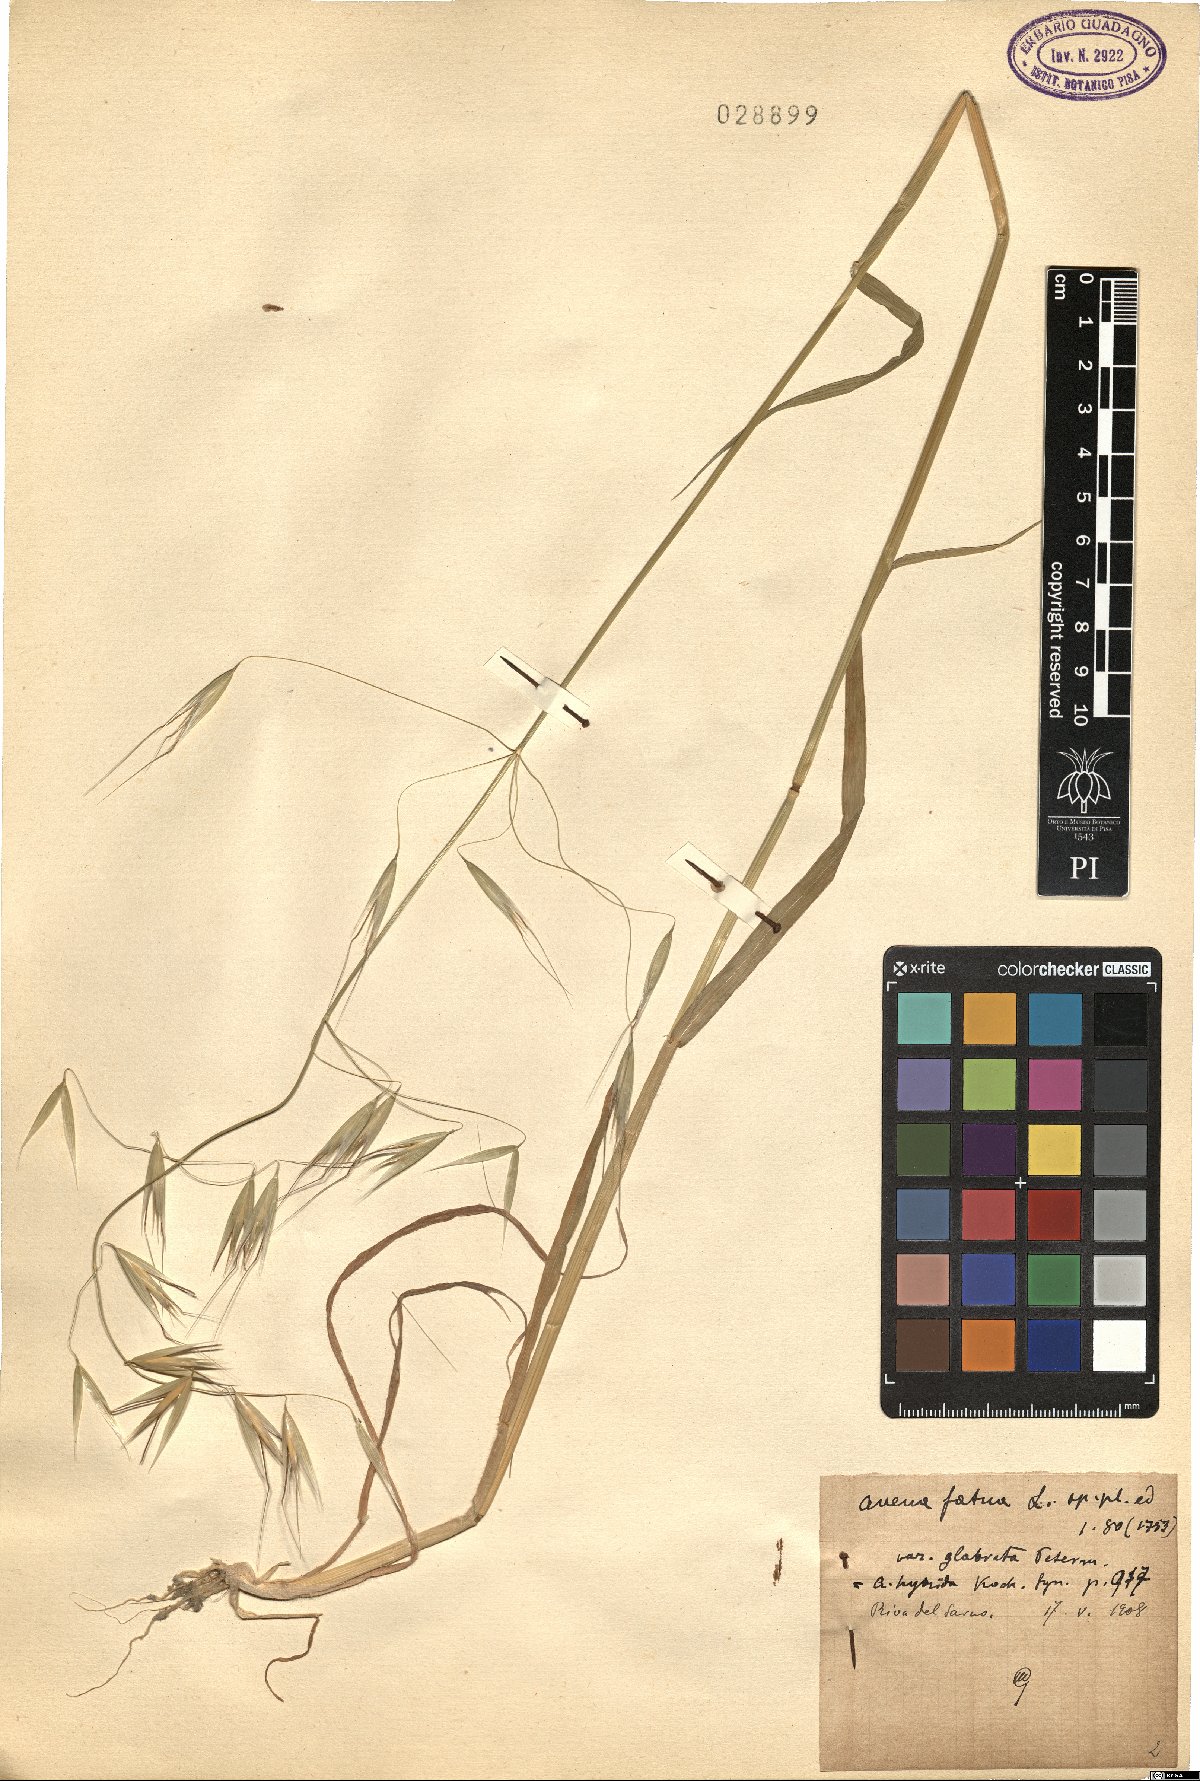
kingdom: Plantae
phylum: Tracheophyta
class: Liliopsida
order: Poales
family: Poaceae
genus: Avena
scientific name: Avena fatua
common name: Wild oat
